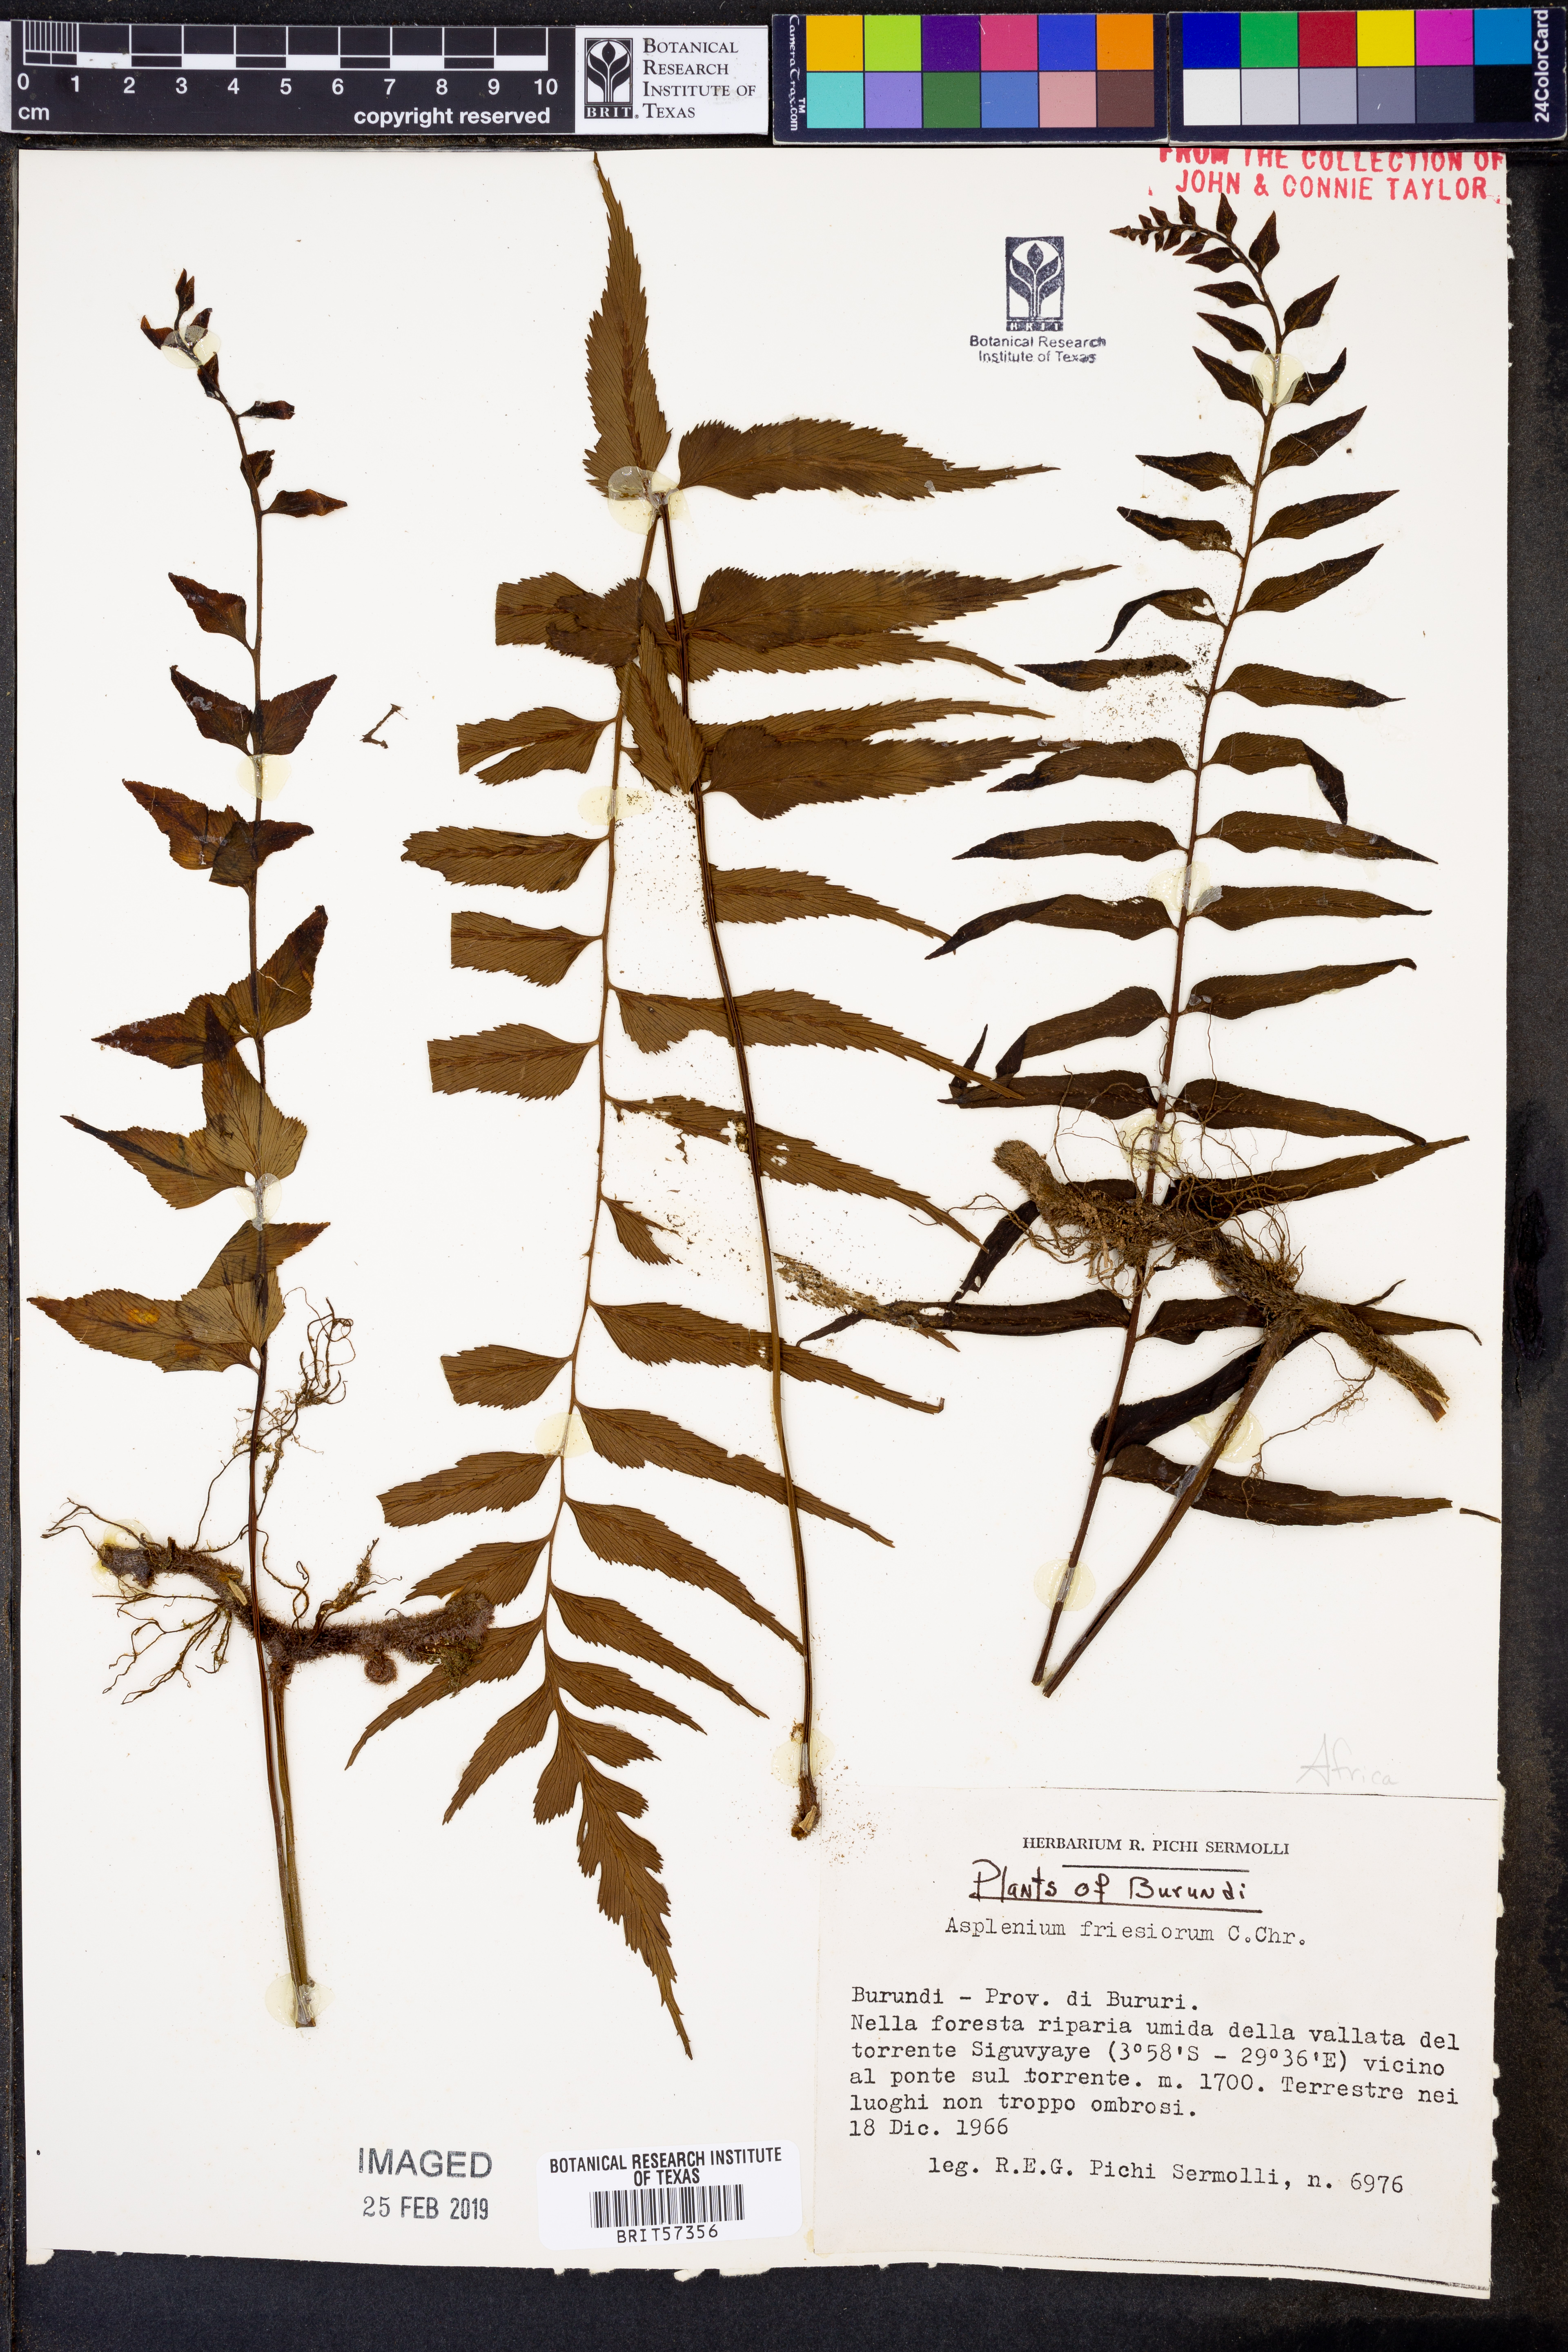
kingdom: Plantae
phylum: Tracheophyta
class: Polypodiopsida
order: Polypodiales
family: Aspleniaceae
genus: Asplenium
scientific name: Asplenium gueinzianum
